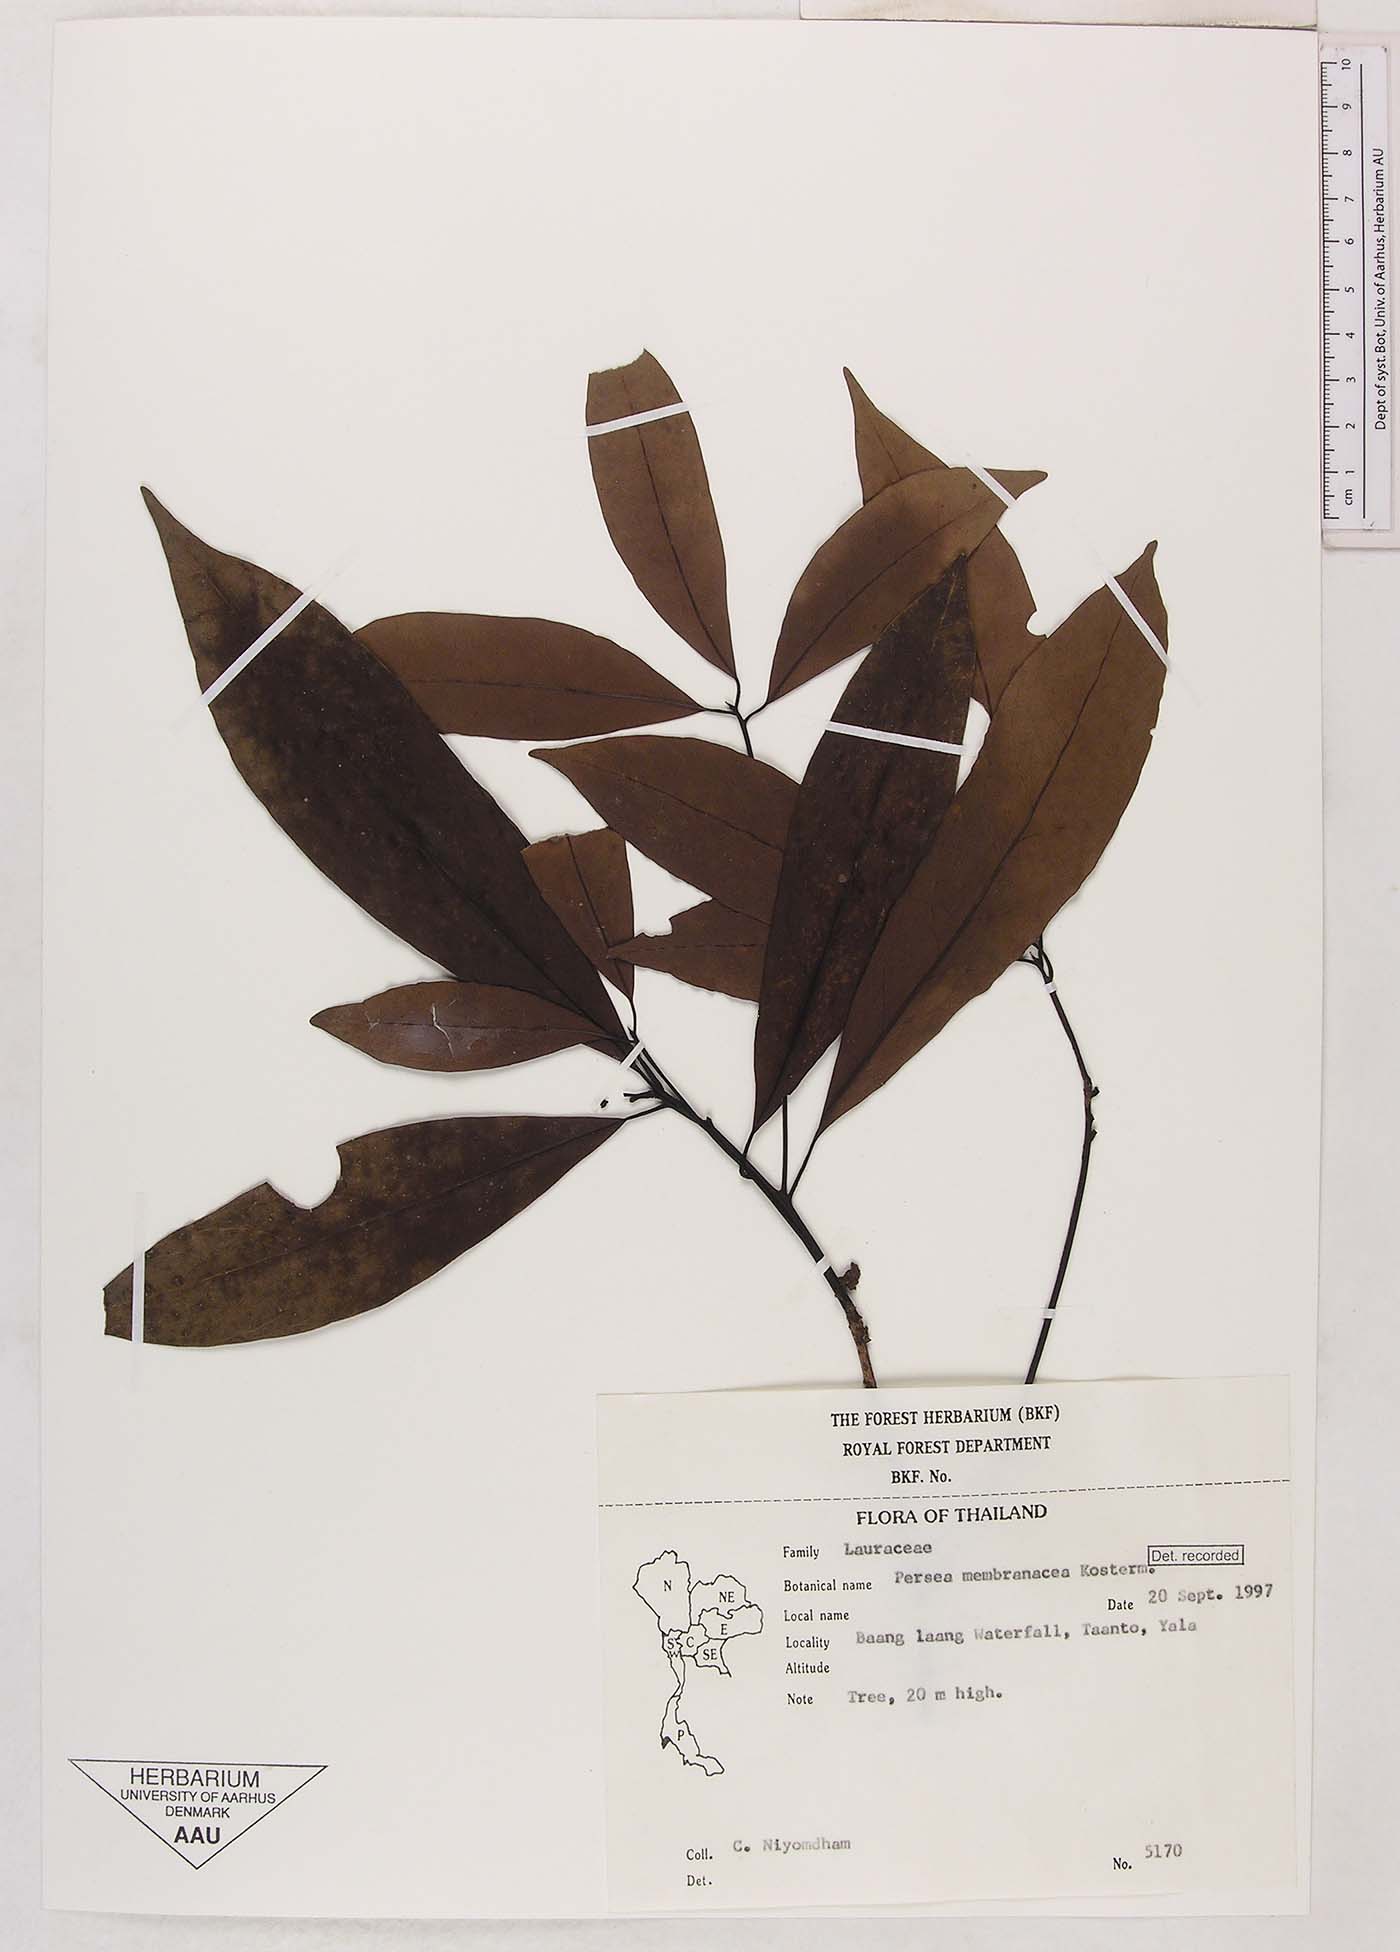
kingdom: Plantae
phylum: Tracheophyta
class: Magnoliopsida
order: Laurales
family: Lauraceae
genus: Nectandra
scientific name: Nectandra membranacea
